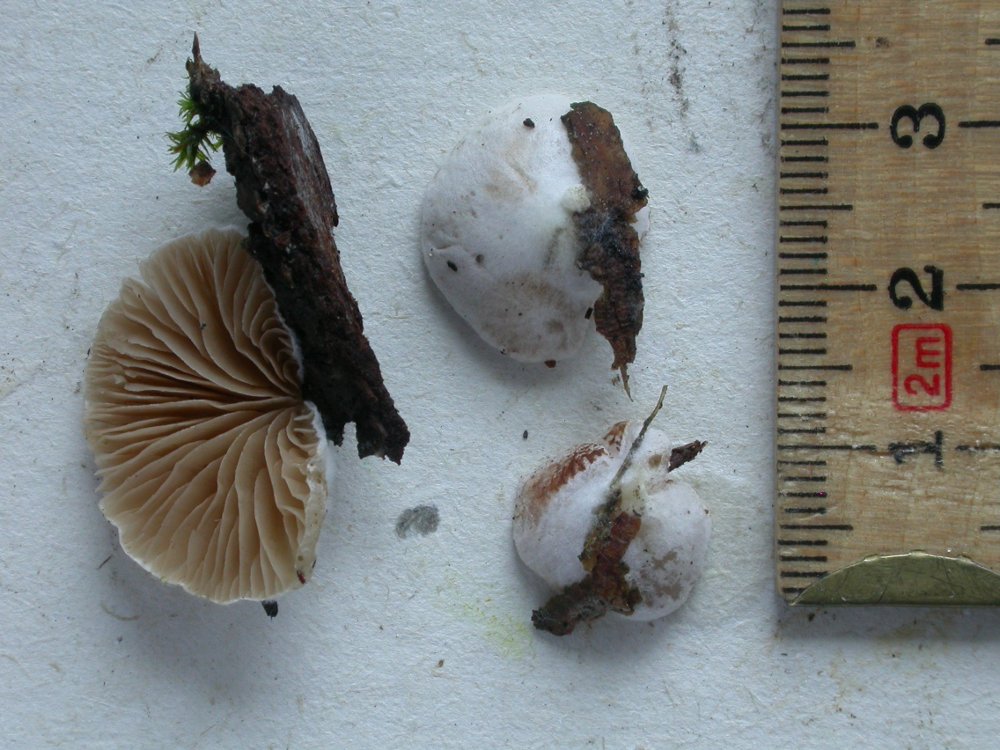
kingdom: Fungi
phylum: Basidiomycota
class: Agaricomycetes
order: Agaricales
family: Crepidotaceae
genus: Crepidotus
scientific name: Crepidotus kubickae
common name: gran-muslingesvamp
